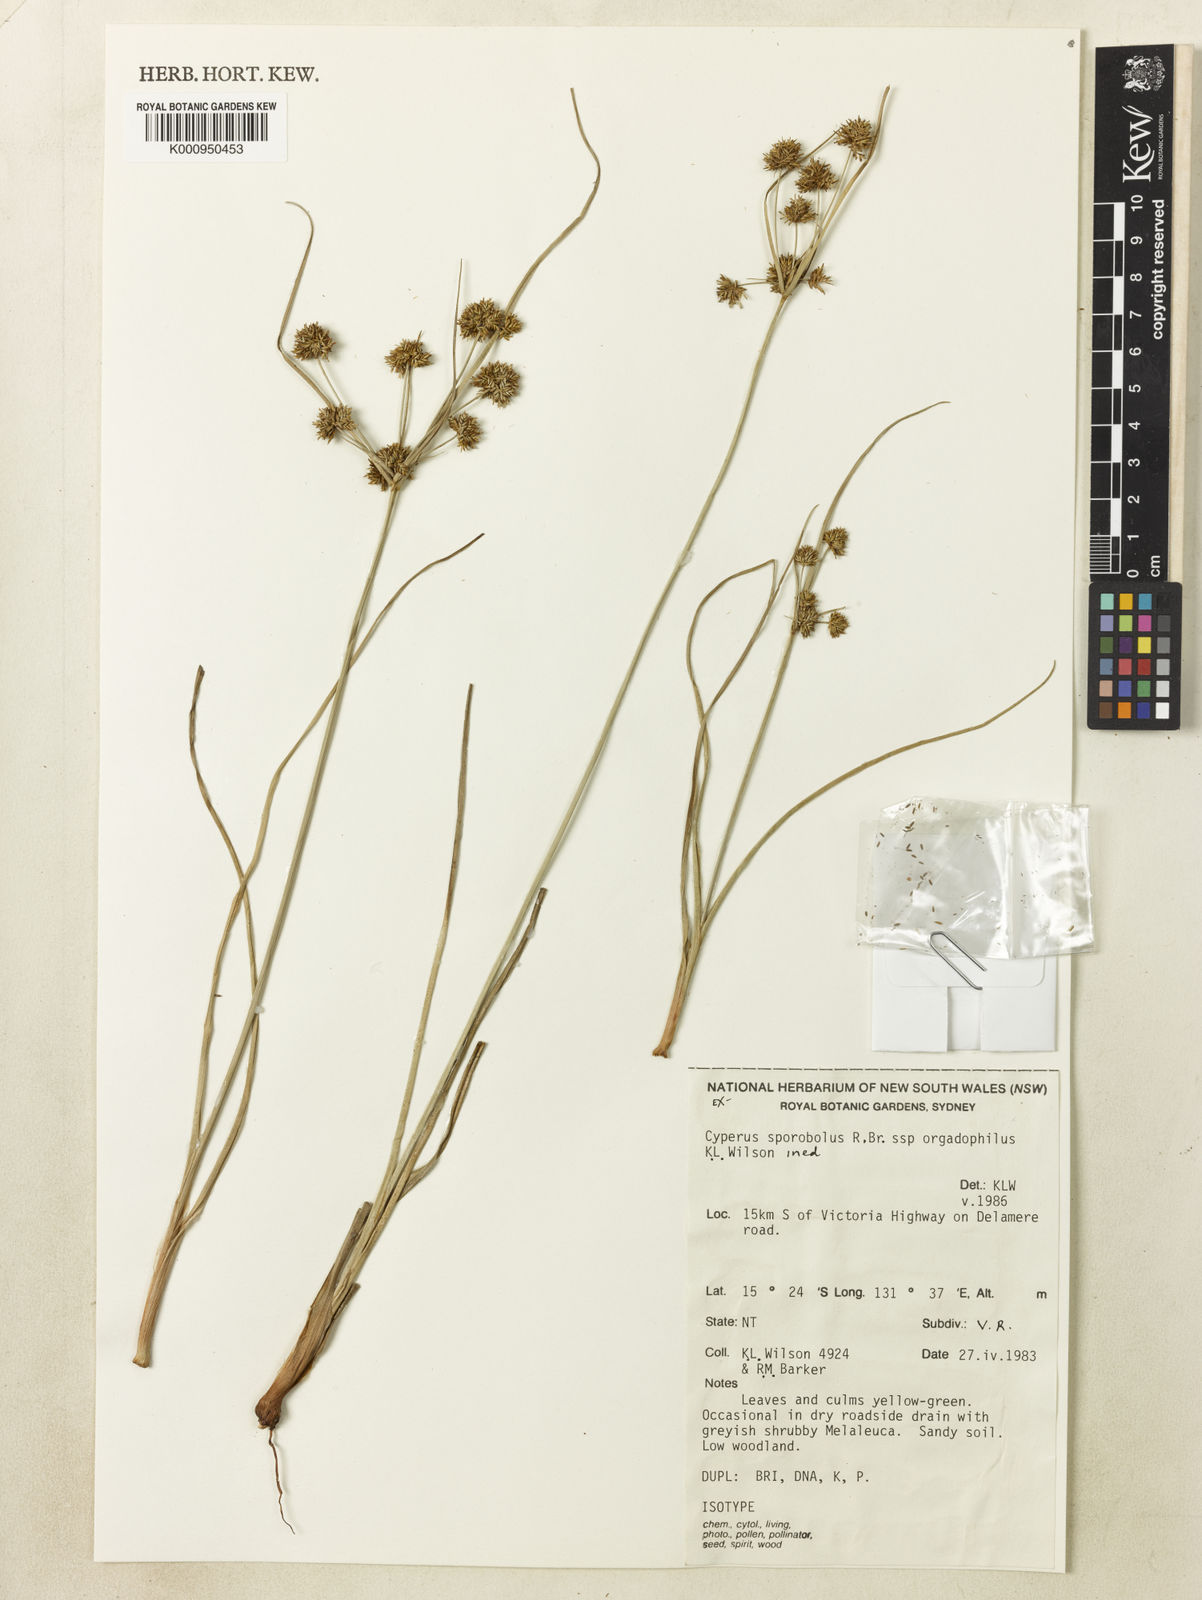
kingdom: Plantae
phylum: Tracheophyta
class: Liliopsida
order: Poales
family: Cyperaceae
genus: Cyperus
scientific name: Cyperus sporobolus
